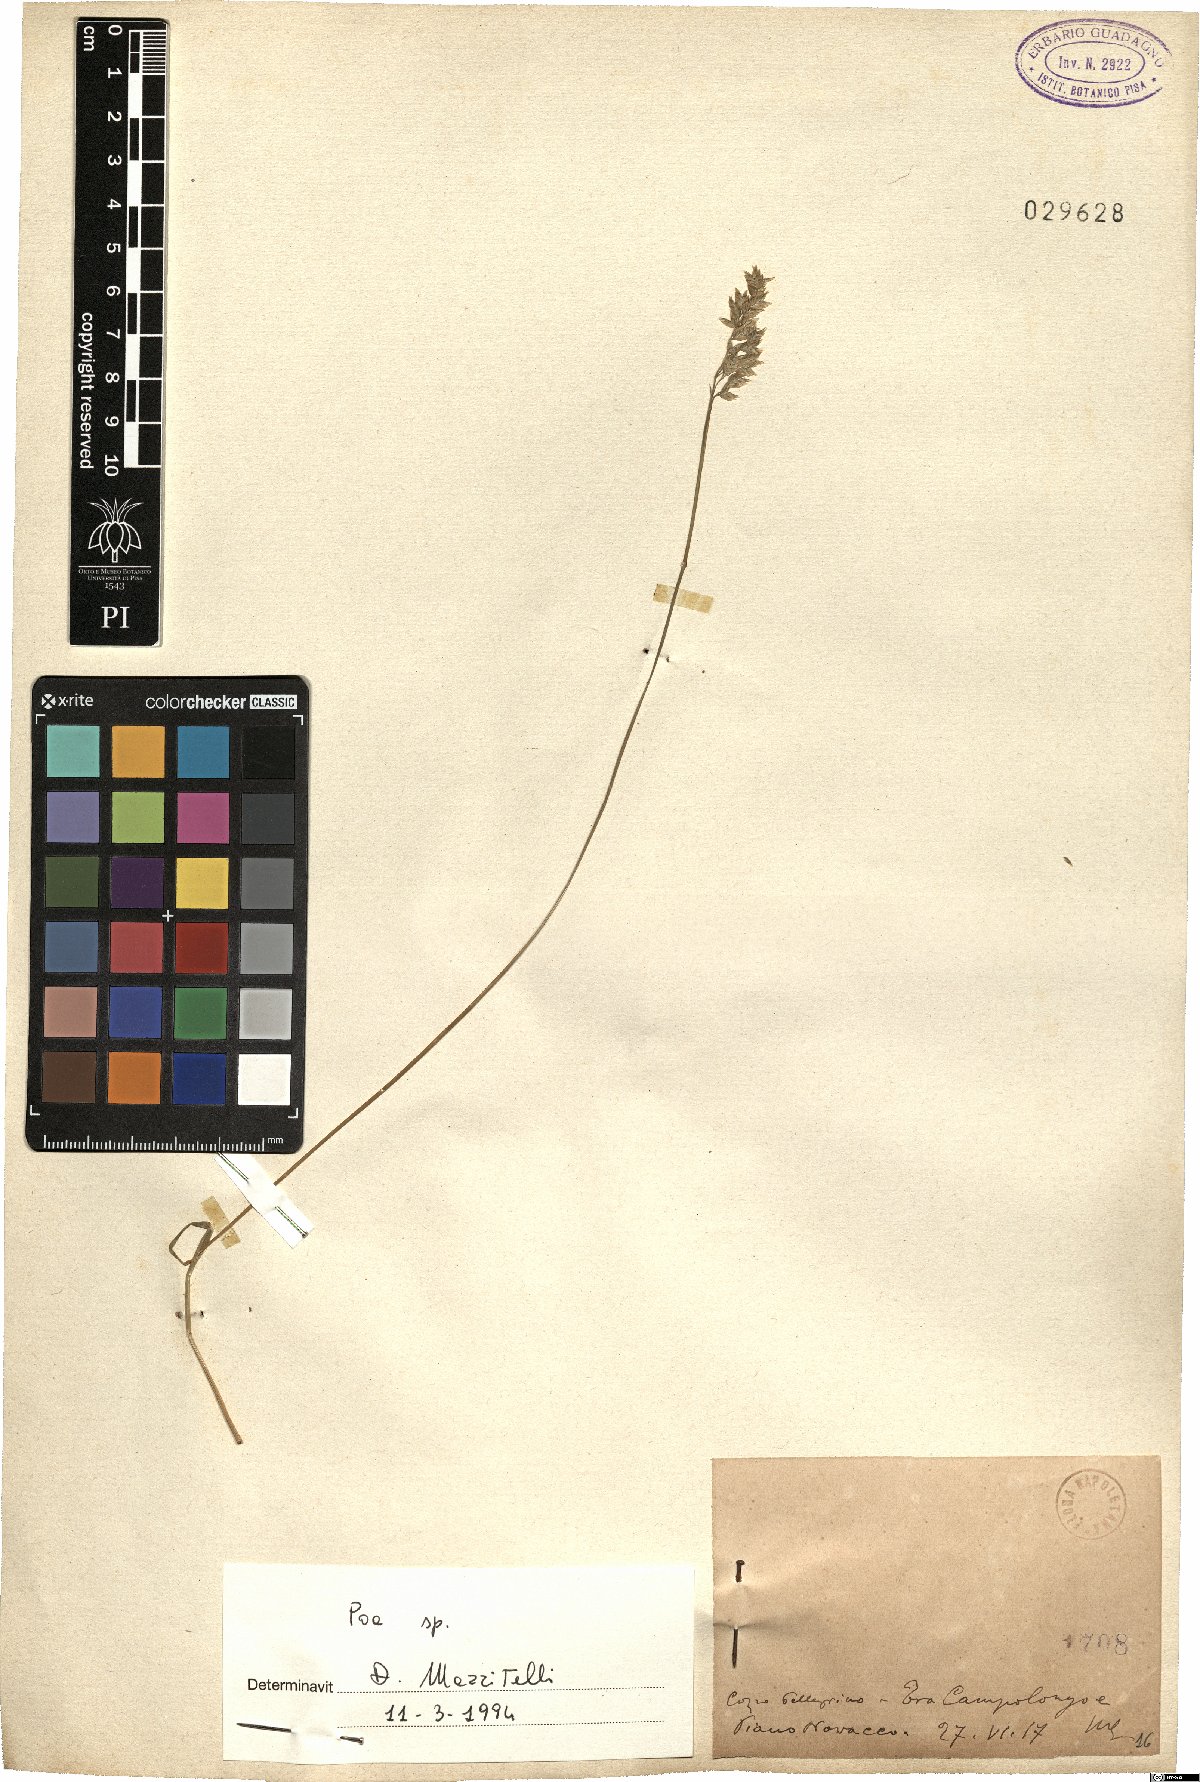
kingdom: Plantae
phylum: Tracheophyta
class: Liliopsida
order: Poales
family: Poaceae
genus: Poa
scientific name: Poa
